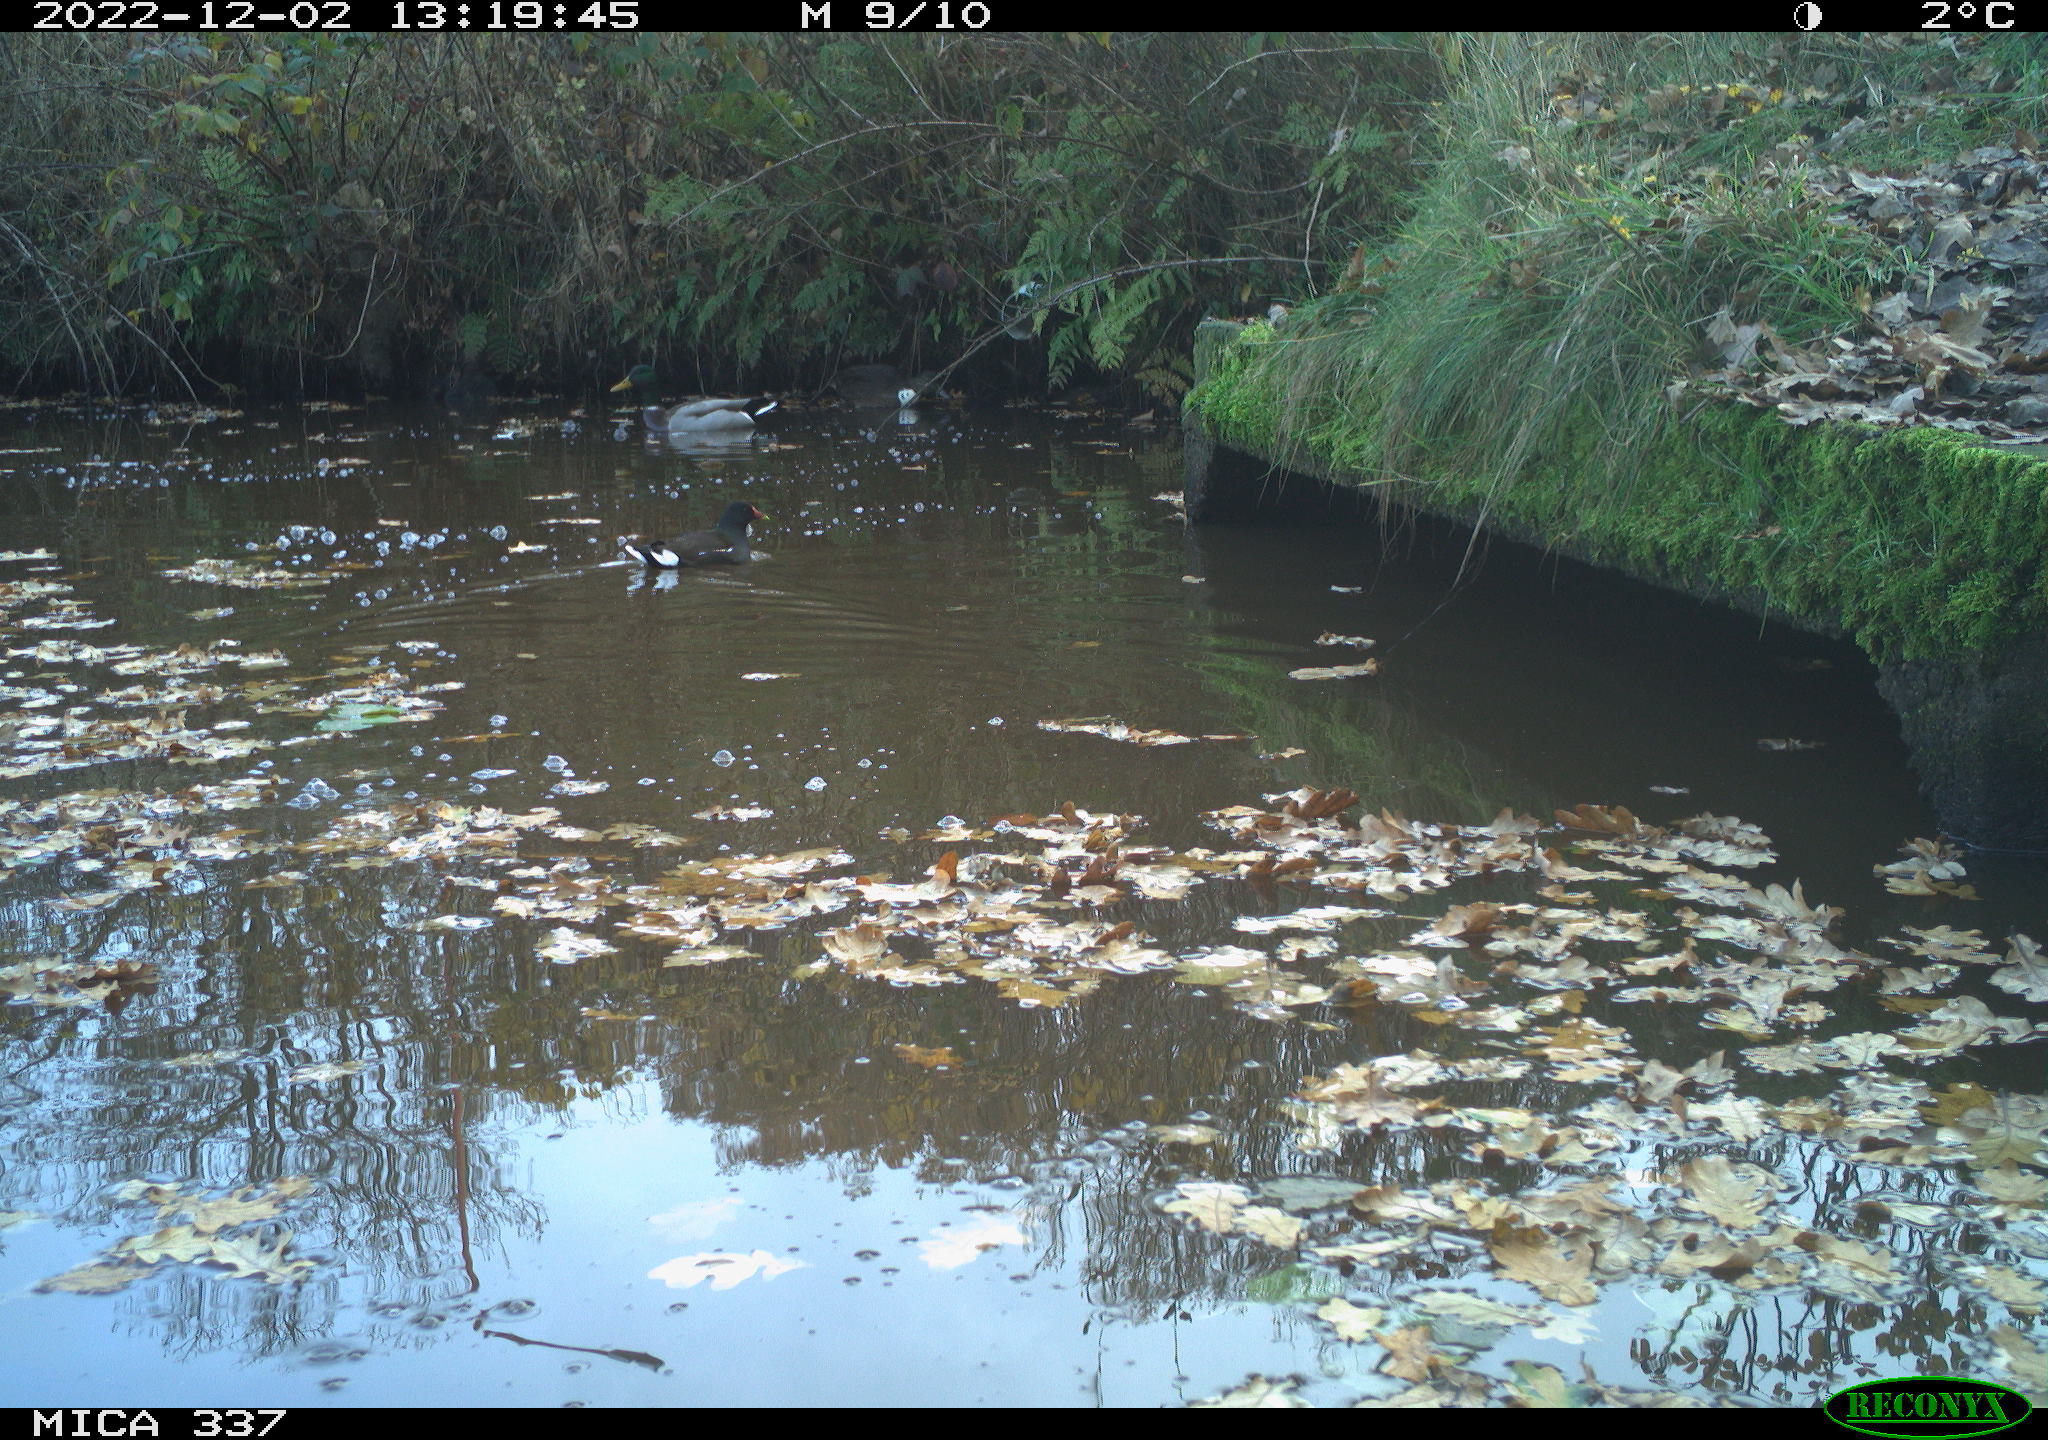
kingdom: Animalia
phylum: Chordata
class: Aves
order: Gruiformes
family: Rallidae
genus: Gallinula
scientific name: Gallinula chloropus
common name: Common moorhen
